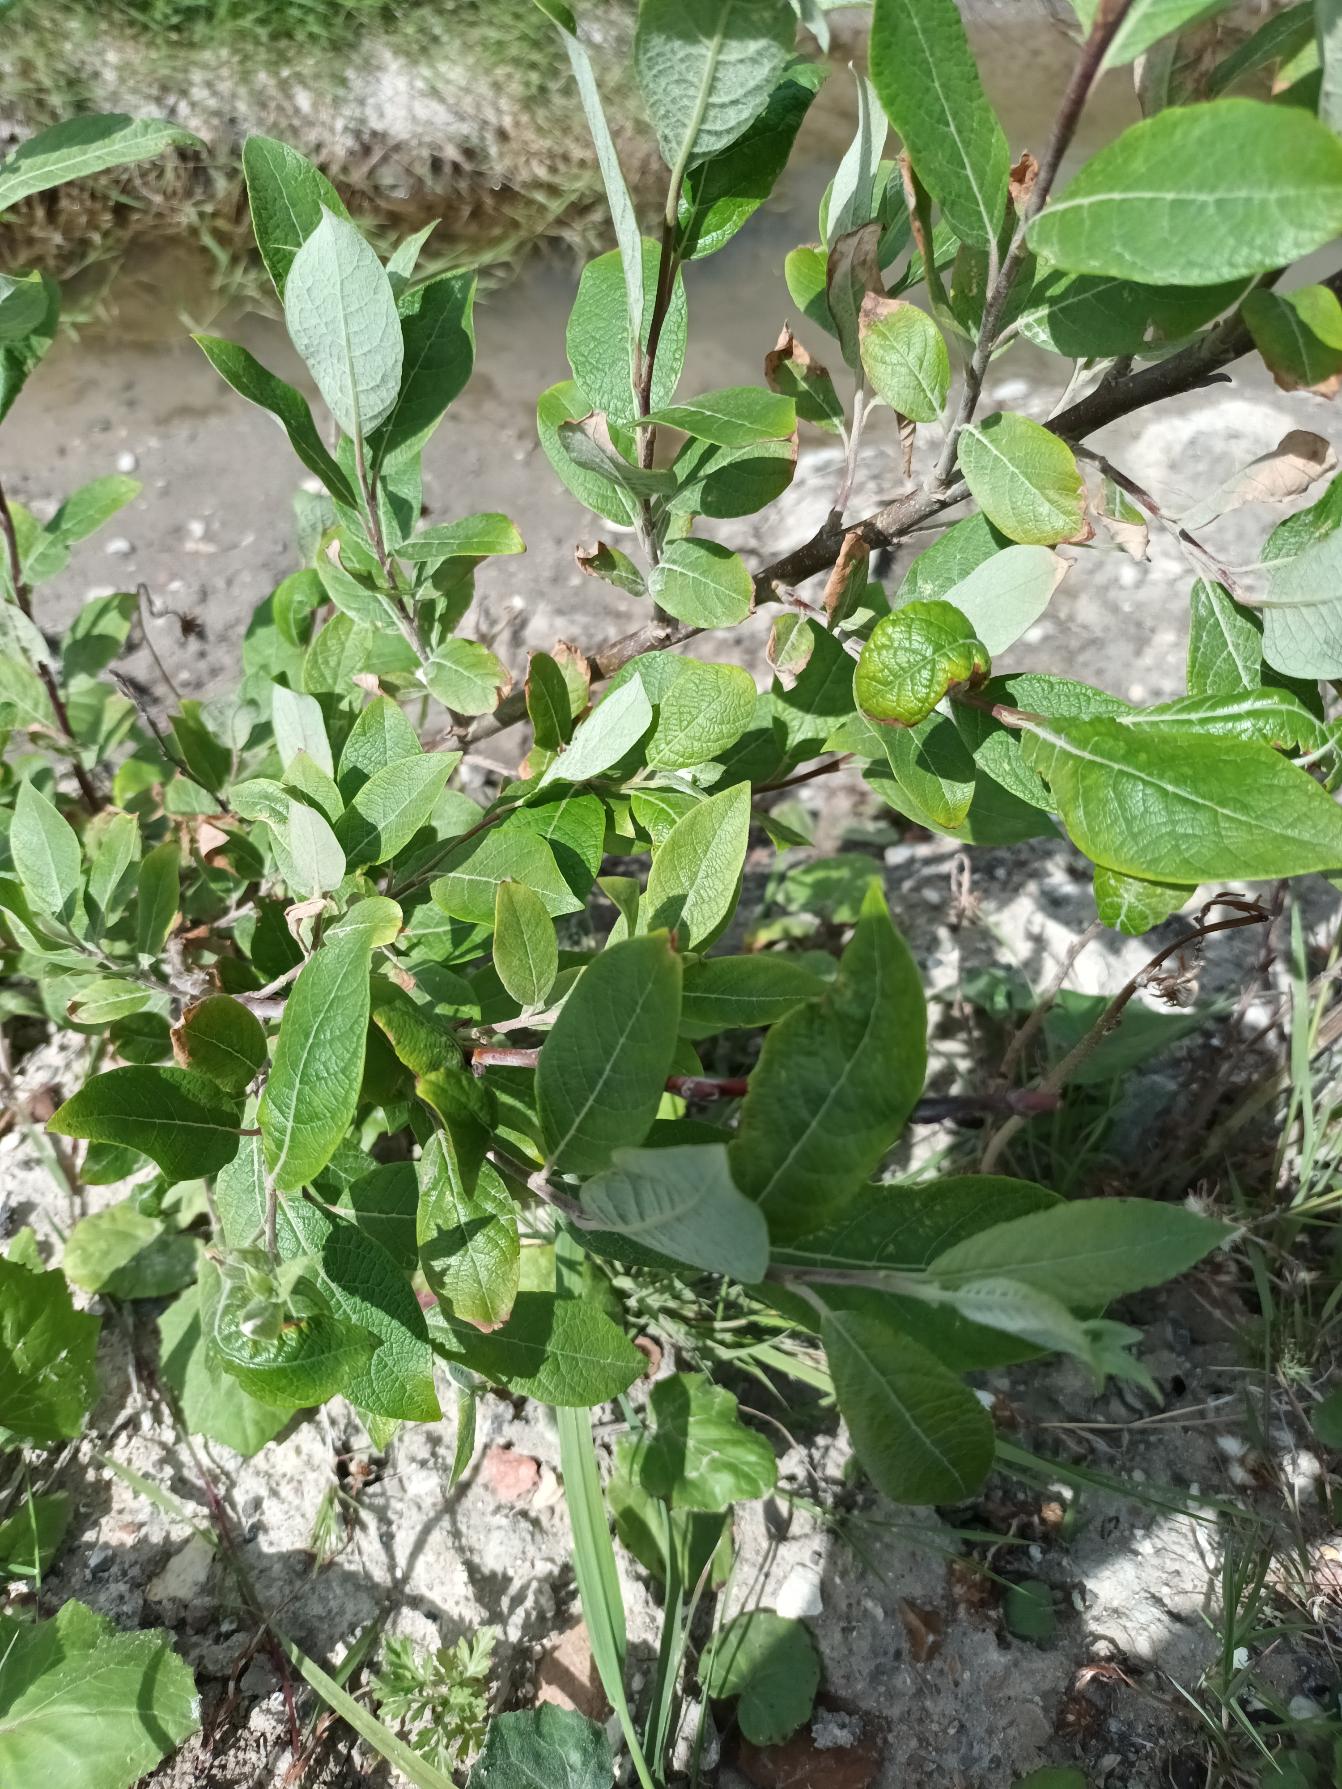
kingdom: Plantae
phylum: Tracheophyta
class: Magnoliopsida
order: Malpighiales
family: Salicaceae
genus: Salix
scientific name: Salix myrsinifolia
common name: Sort pil
